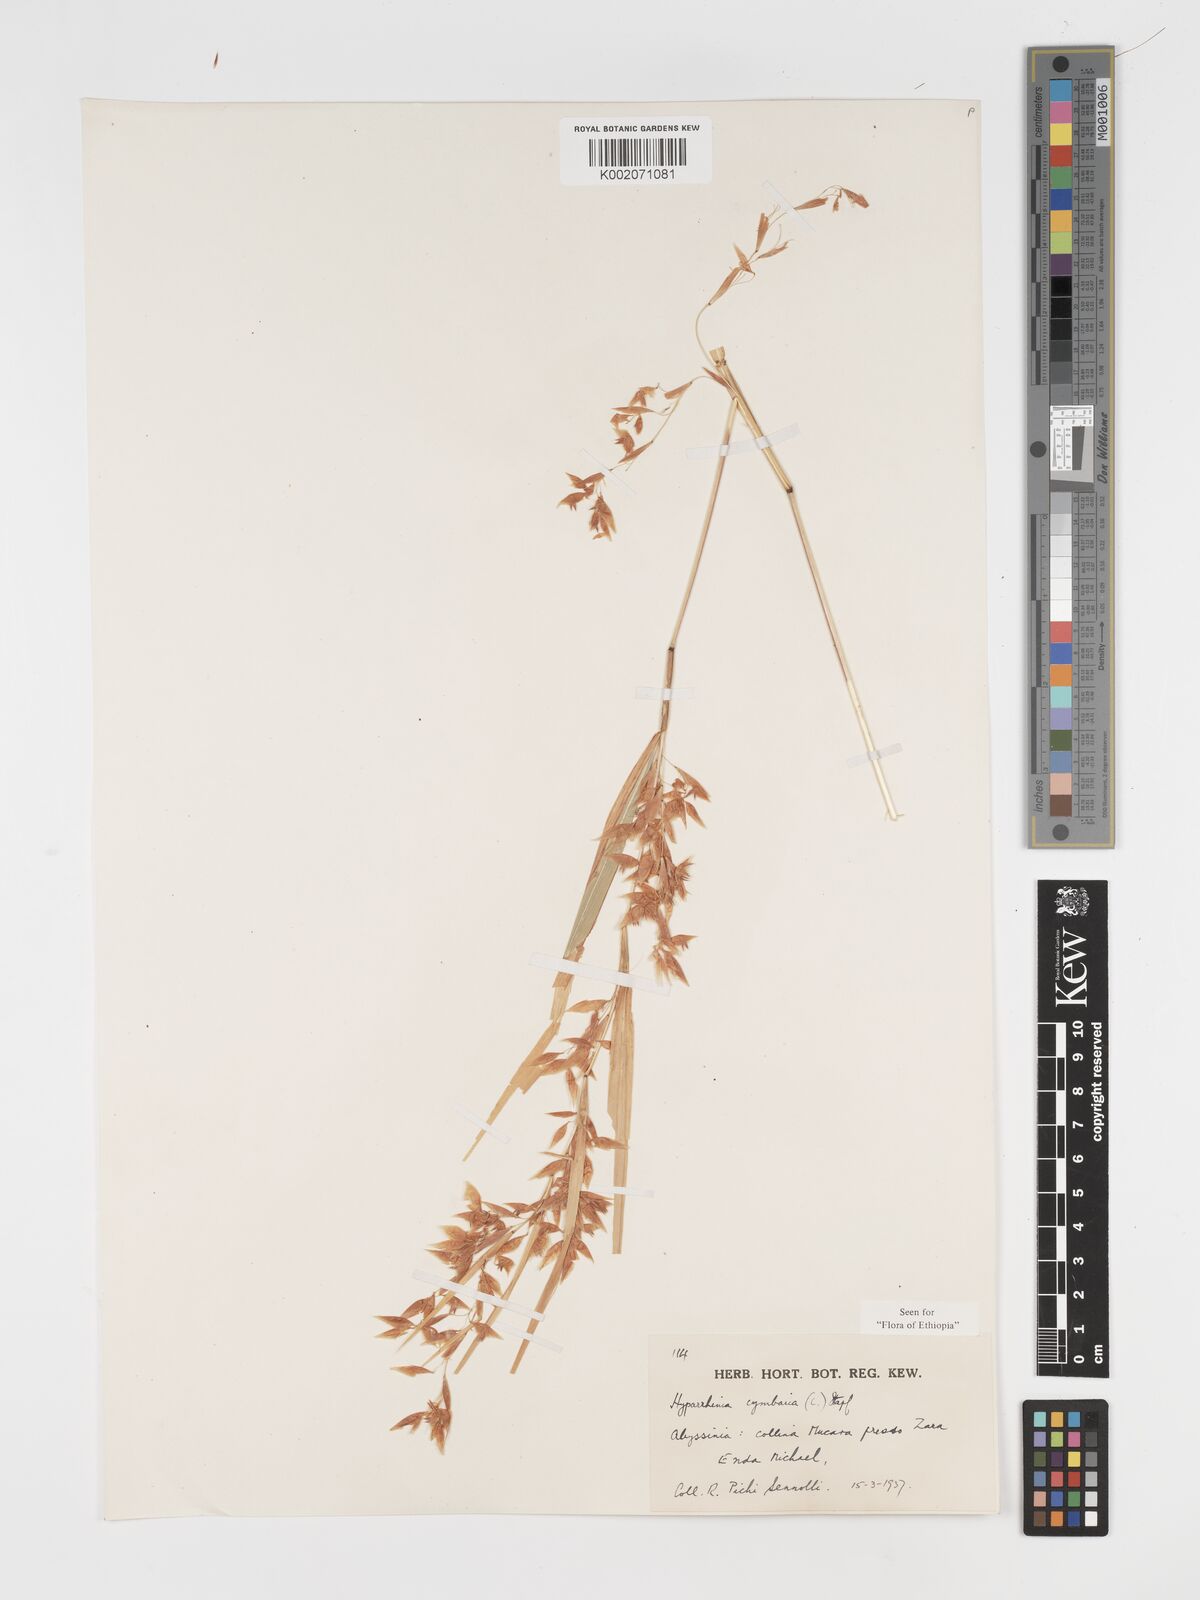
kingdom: Plantae
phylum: Tracheophyta
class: Liliopsida
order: Poales
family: Poaceae
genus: Hyparrhenia
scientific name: Hyparrhenia cymbaria
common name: Boat thatching grass
